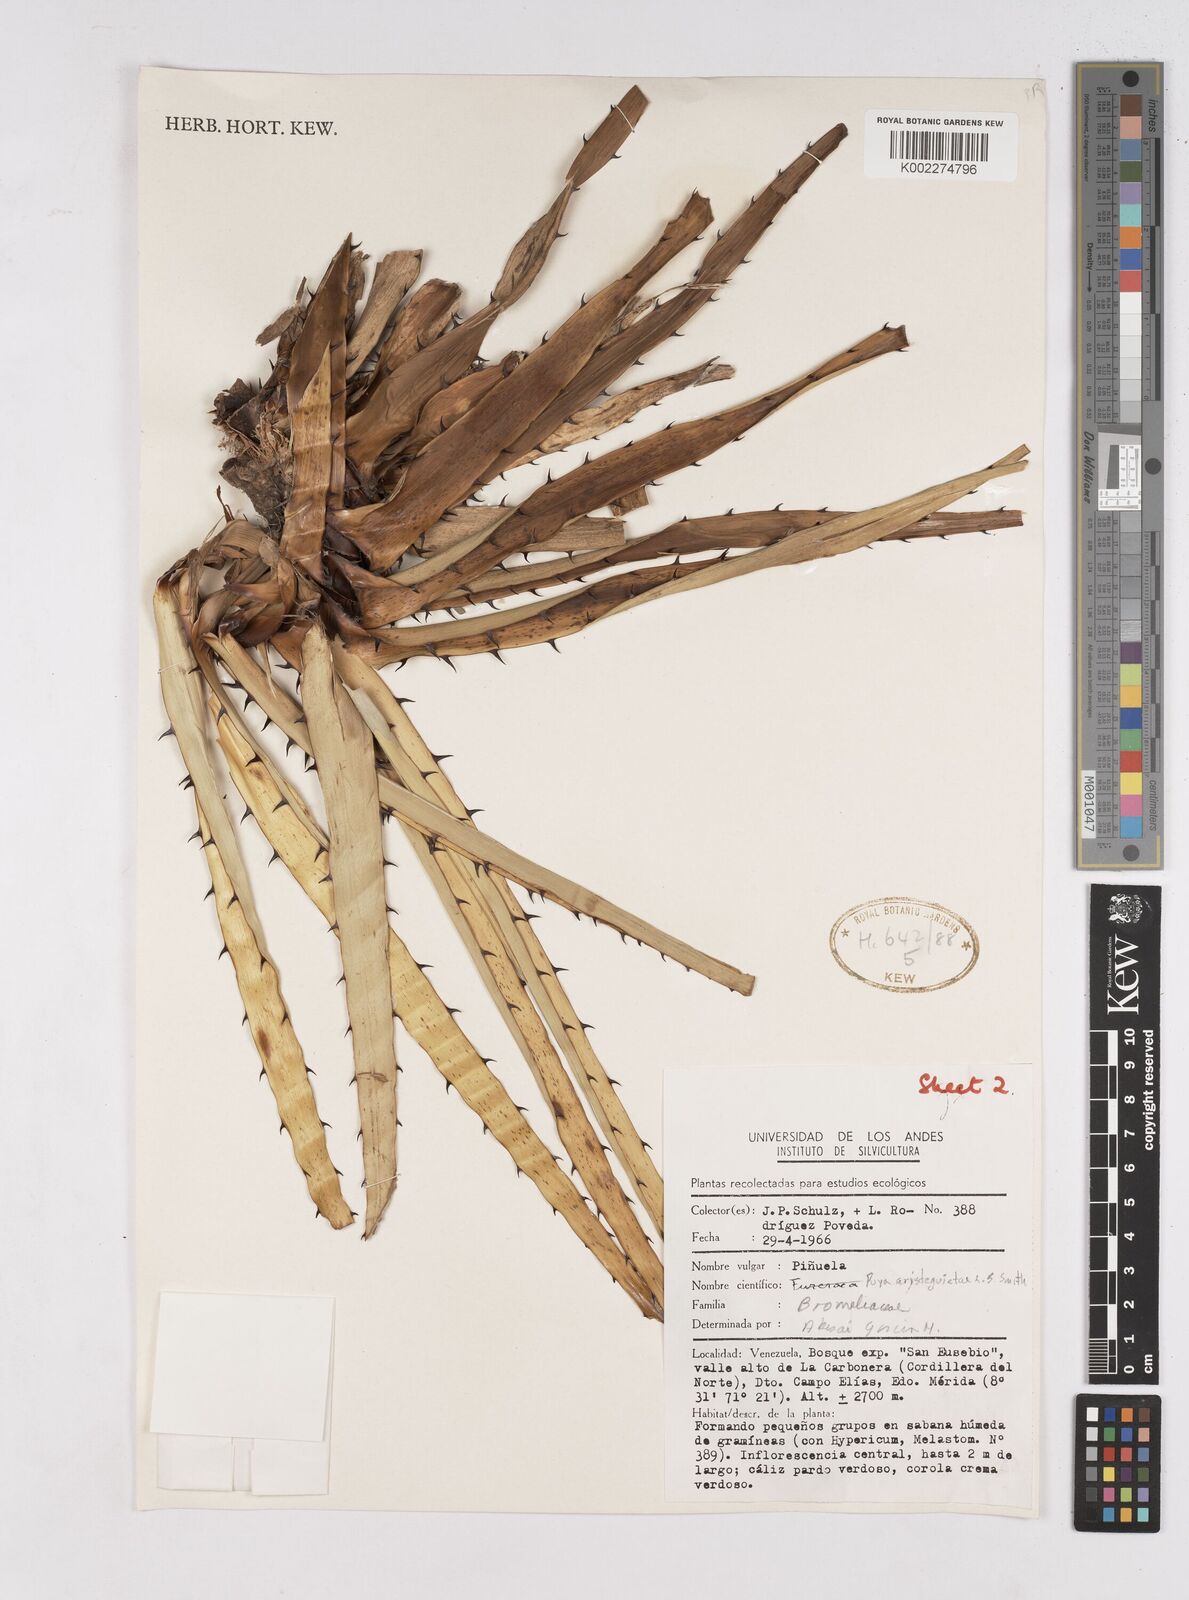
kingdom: Plantae
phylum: Tracheophyta
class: Liliopsida
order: Poales
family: Bromeliaceae
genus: Puya
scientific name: Puya aristeguietae
